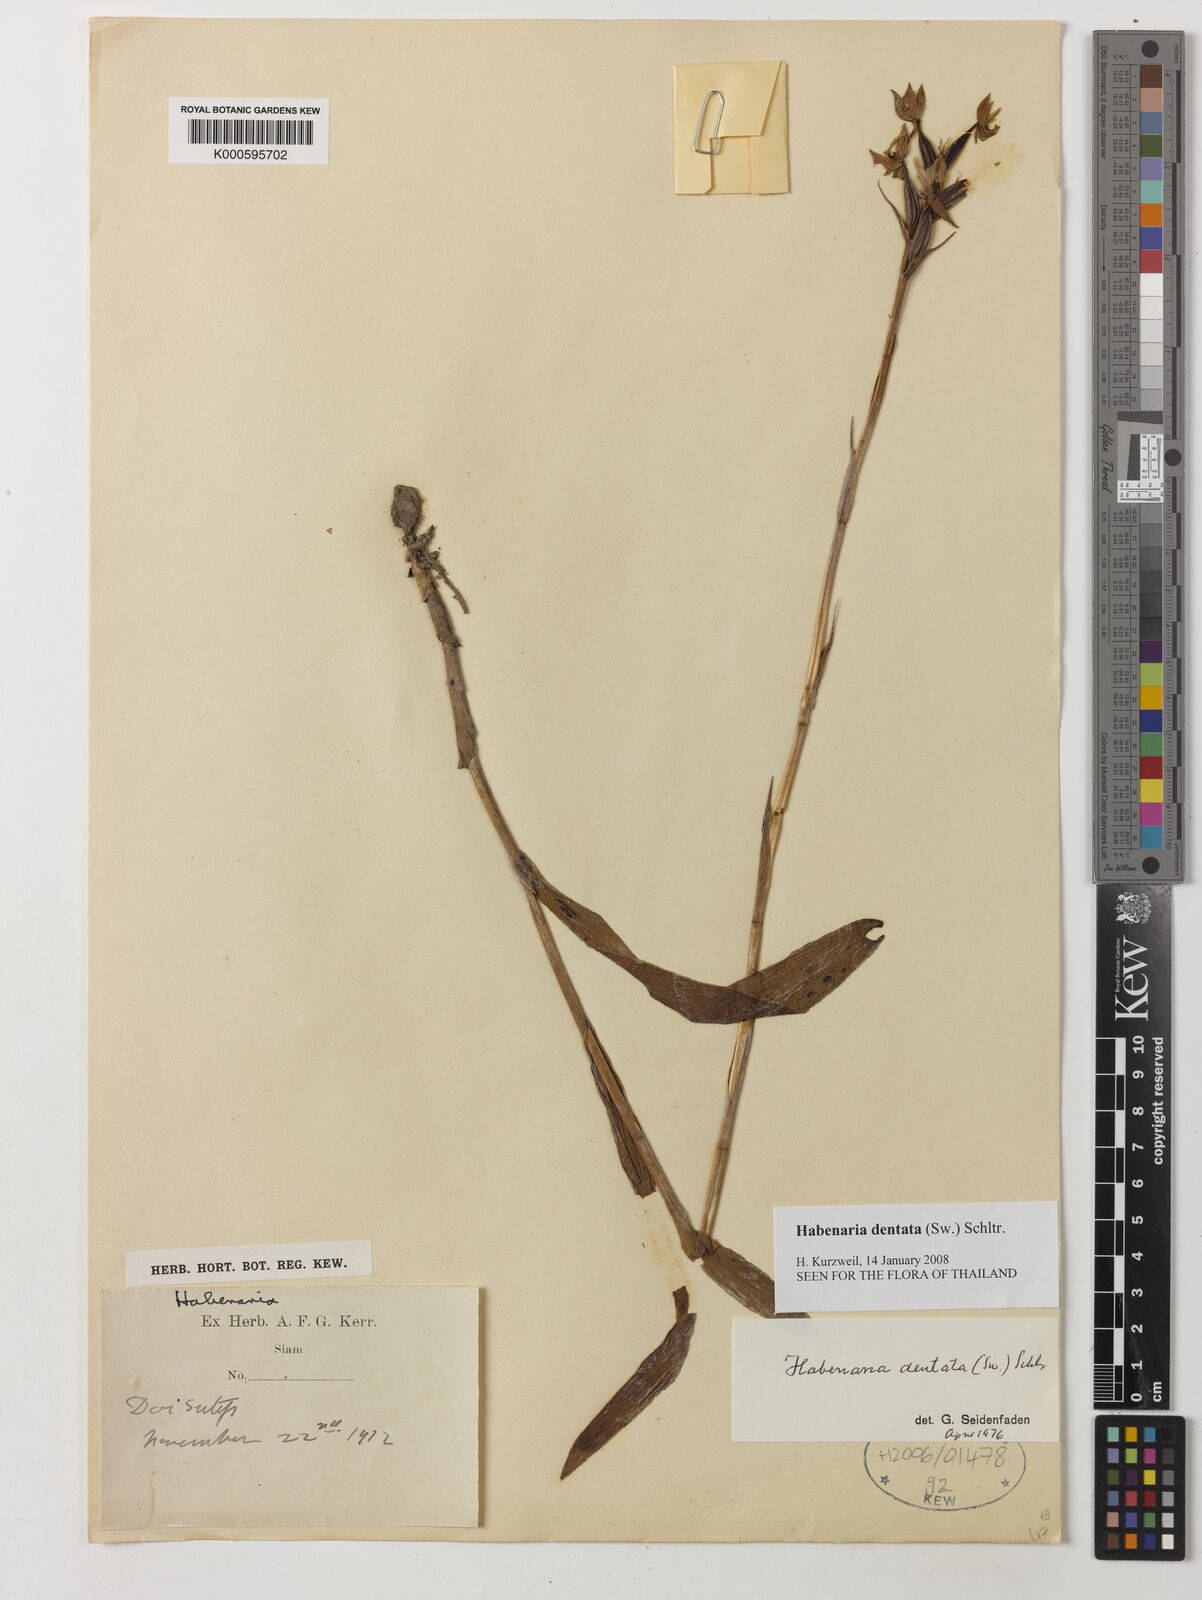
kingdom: Plantae
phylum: Tracheophyta
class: Liliopsida
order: Asparagales
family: Orchidaceae
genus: Habenaria
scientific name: Habenaria dentata
